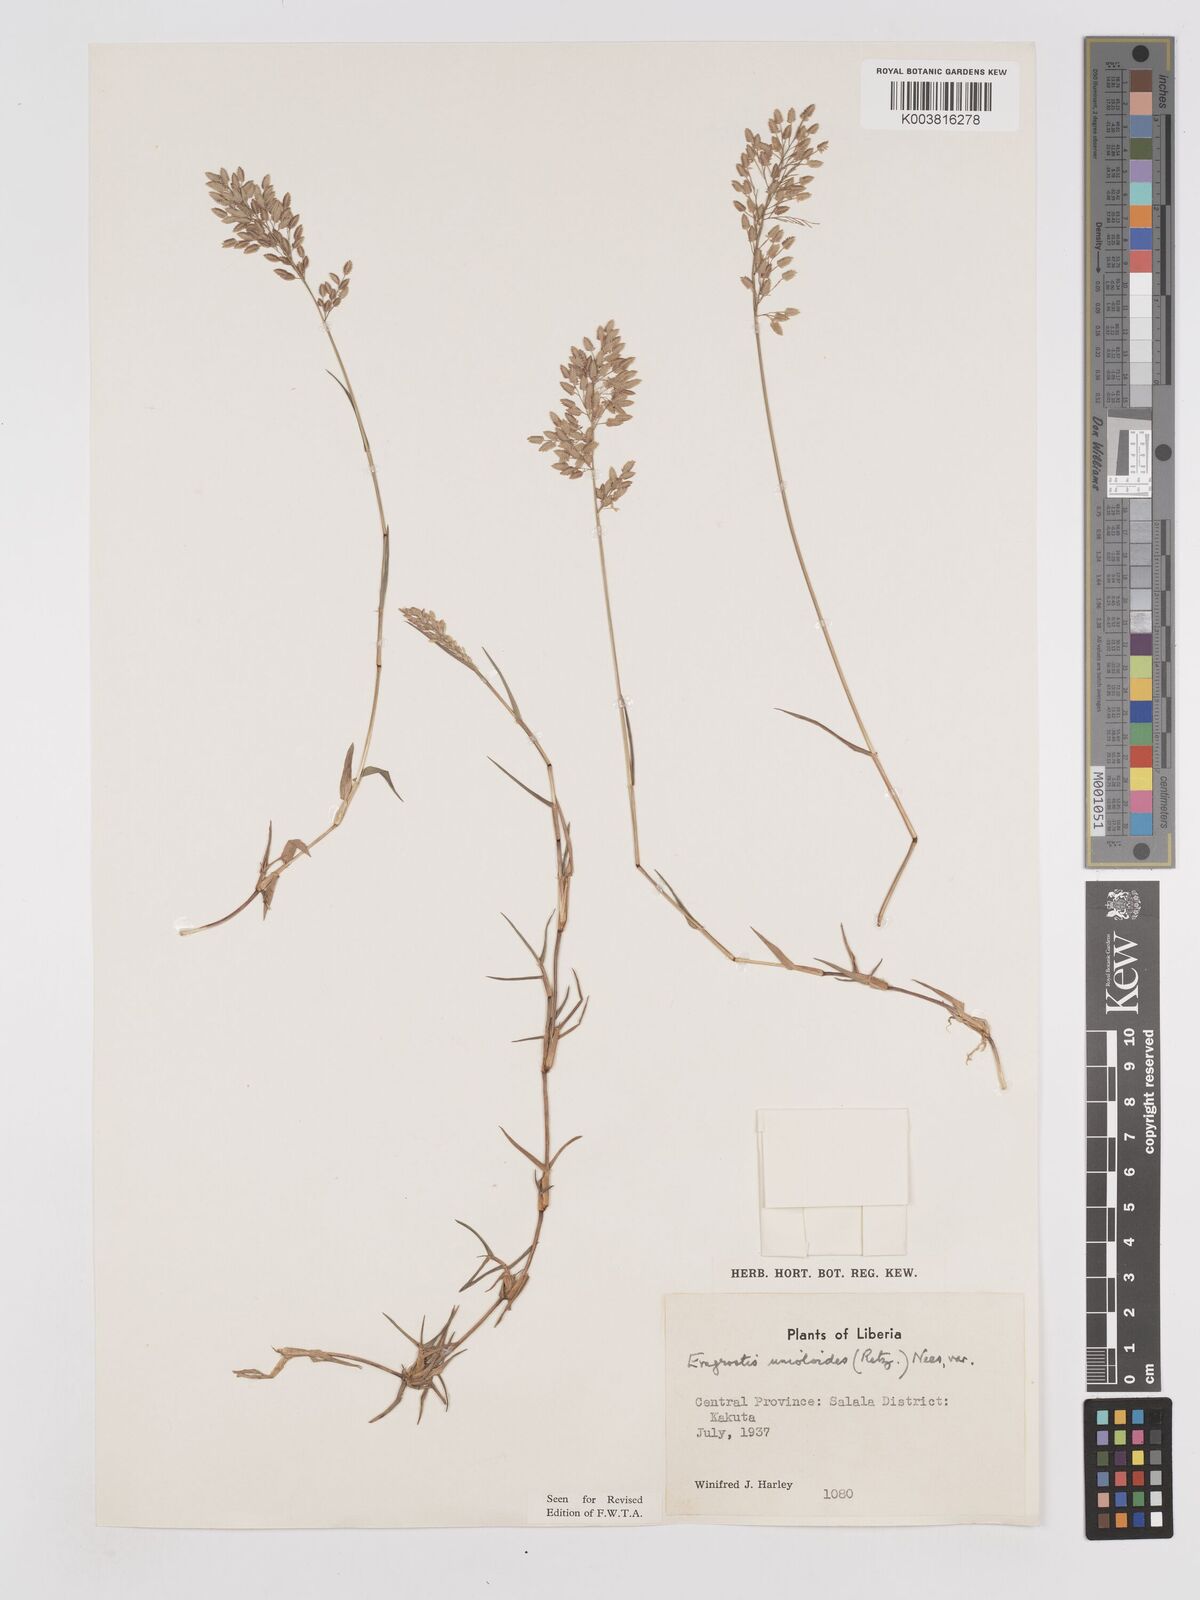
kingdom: Plantae
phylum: Tracheophyta
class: Liliopsida
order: Poales
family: Poaceae
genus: Eragrostis
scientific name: Eragrostis unioloides
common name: Chinese lovegrass
